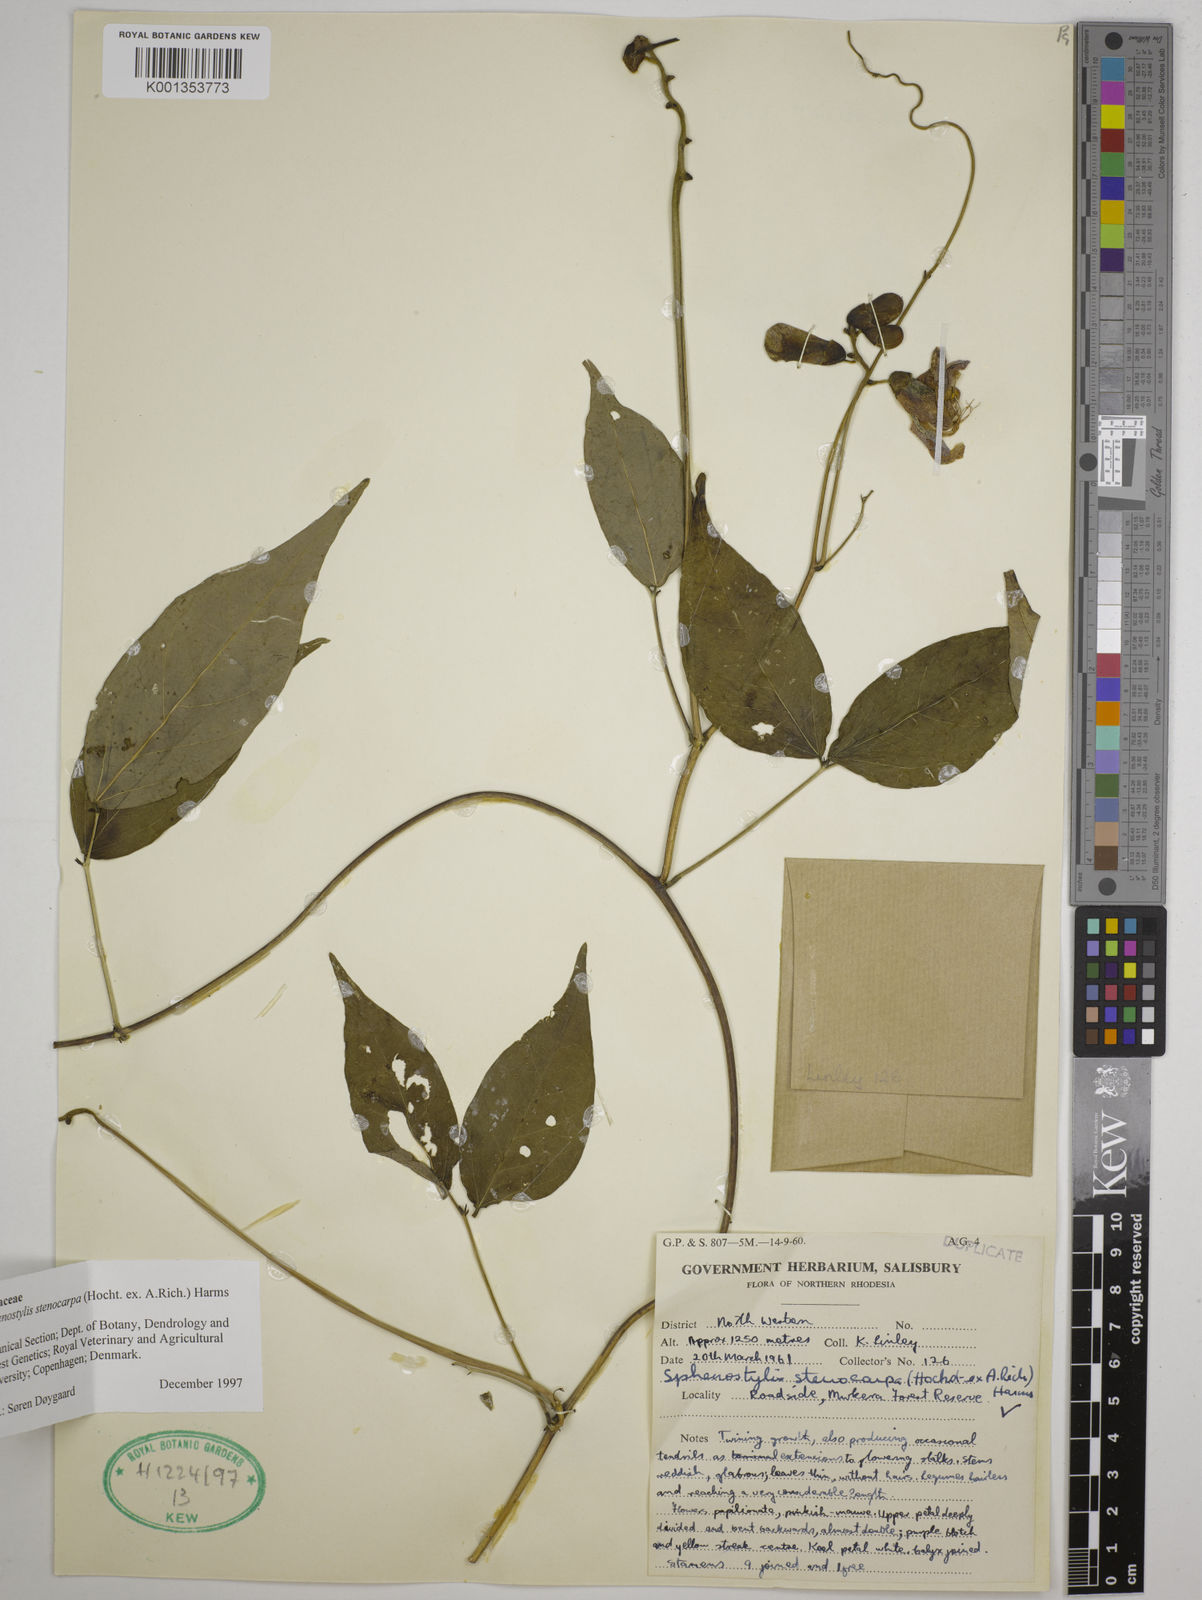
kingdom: Plantae
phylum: Tracheophyta
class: Magnoliopsida
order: Fabales
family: Fabaceae
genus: Sphenostylis
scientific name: Sphenostylis stenocarpa
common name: Yam-pea
